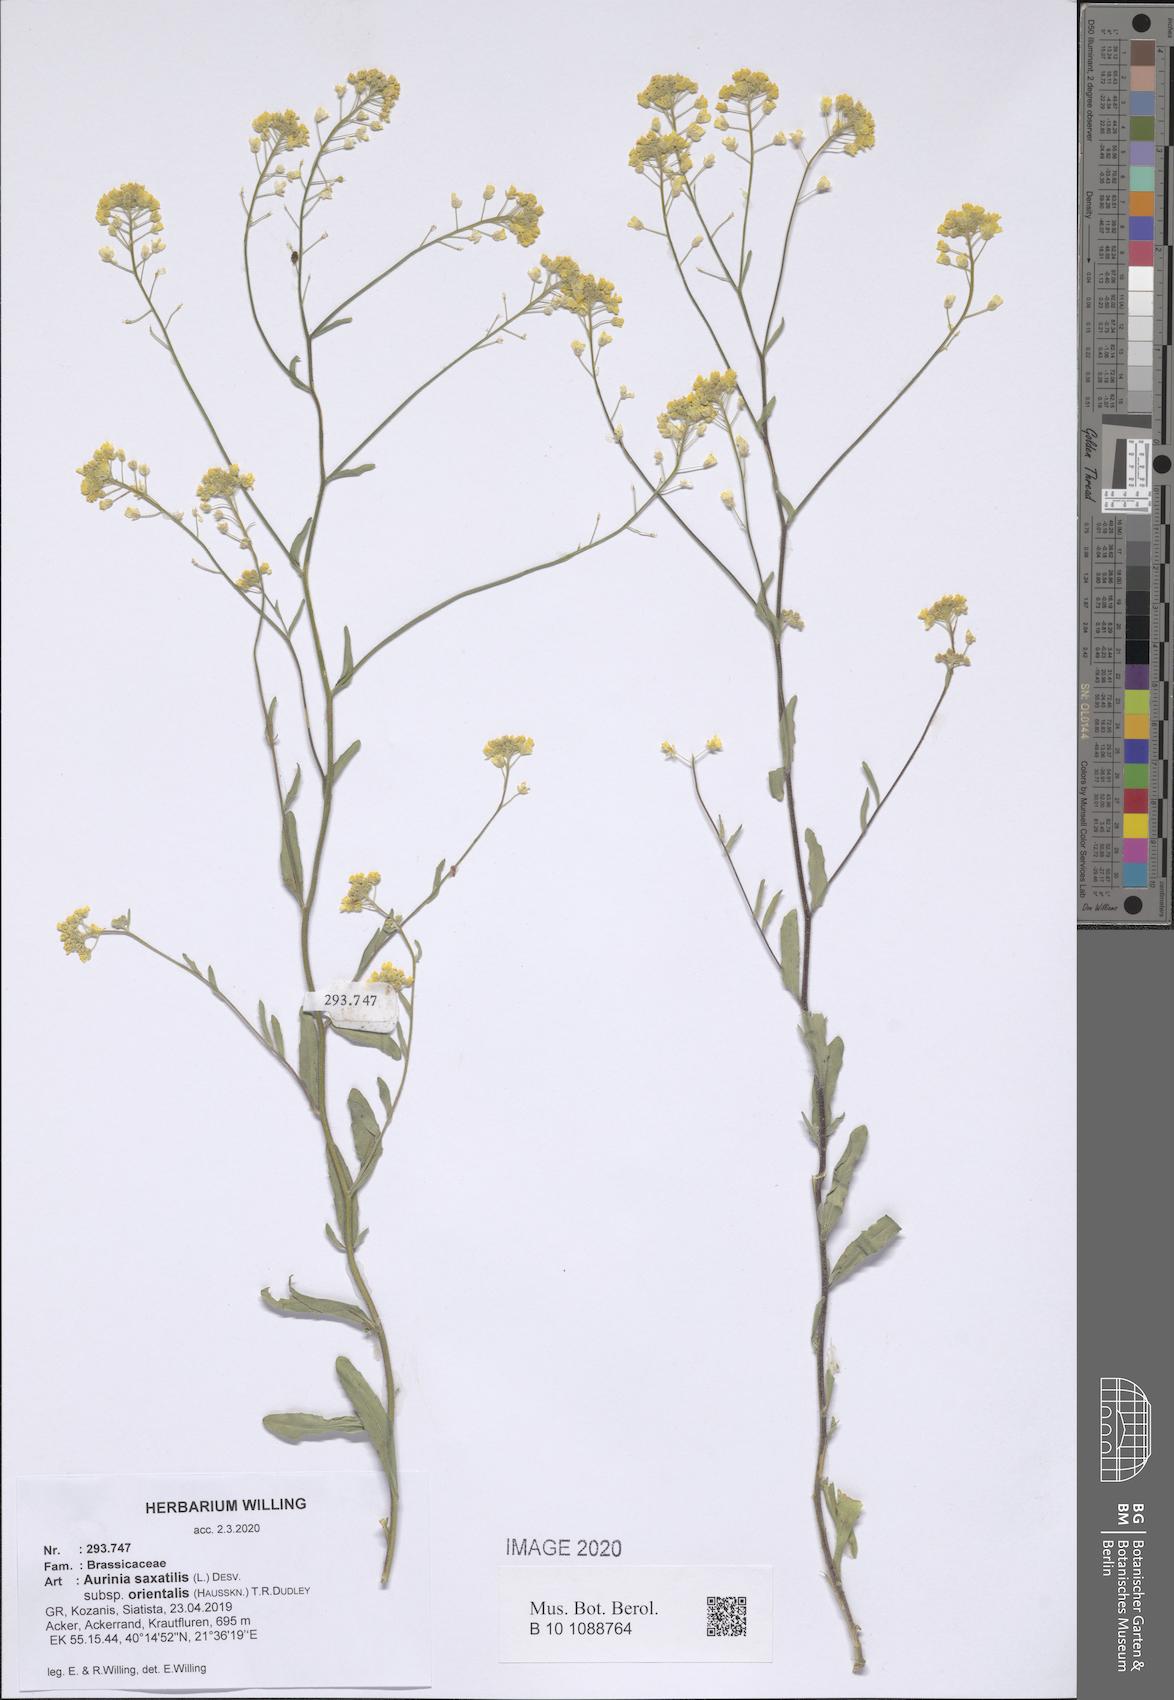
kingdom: Plantae
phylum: Tracheophyta
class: Magnoliopsida
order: Brassicales
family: Brassicaceae
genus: Aurinia
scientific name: Aurinia saxatilis
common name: Golden-tuft alyssum
